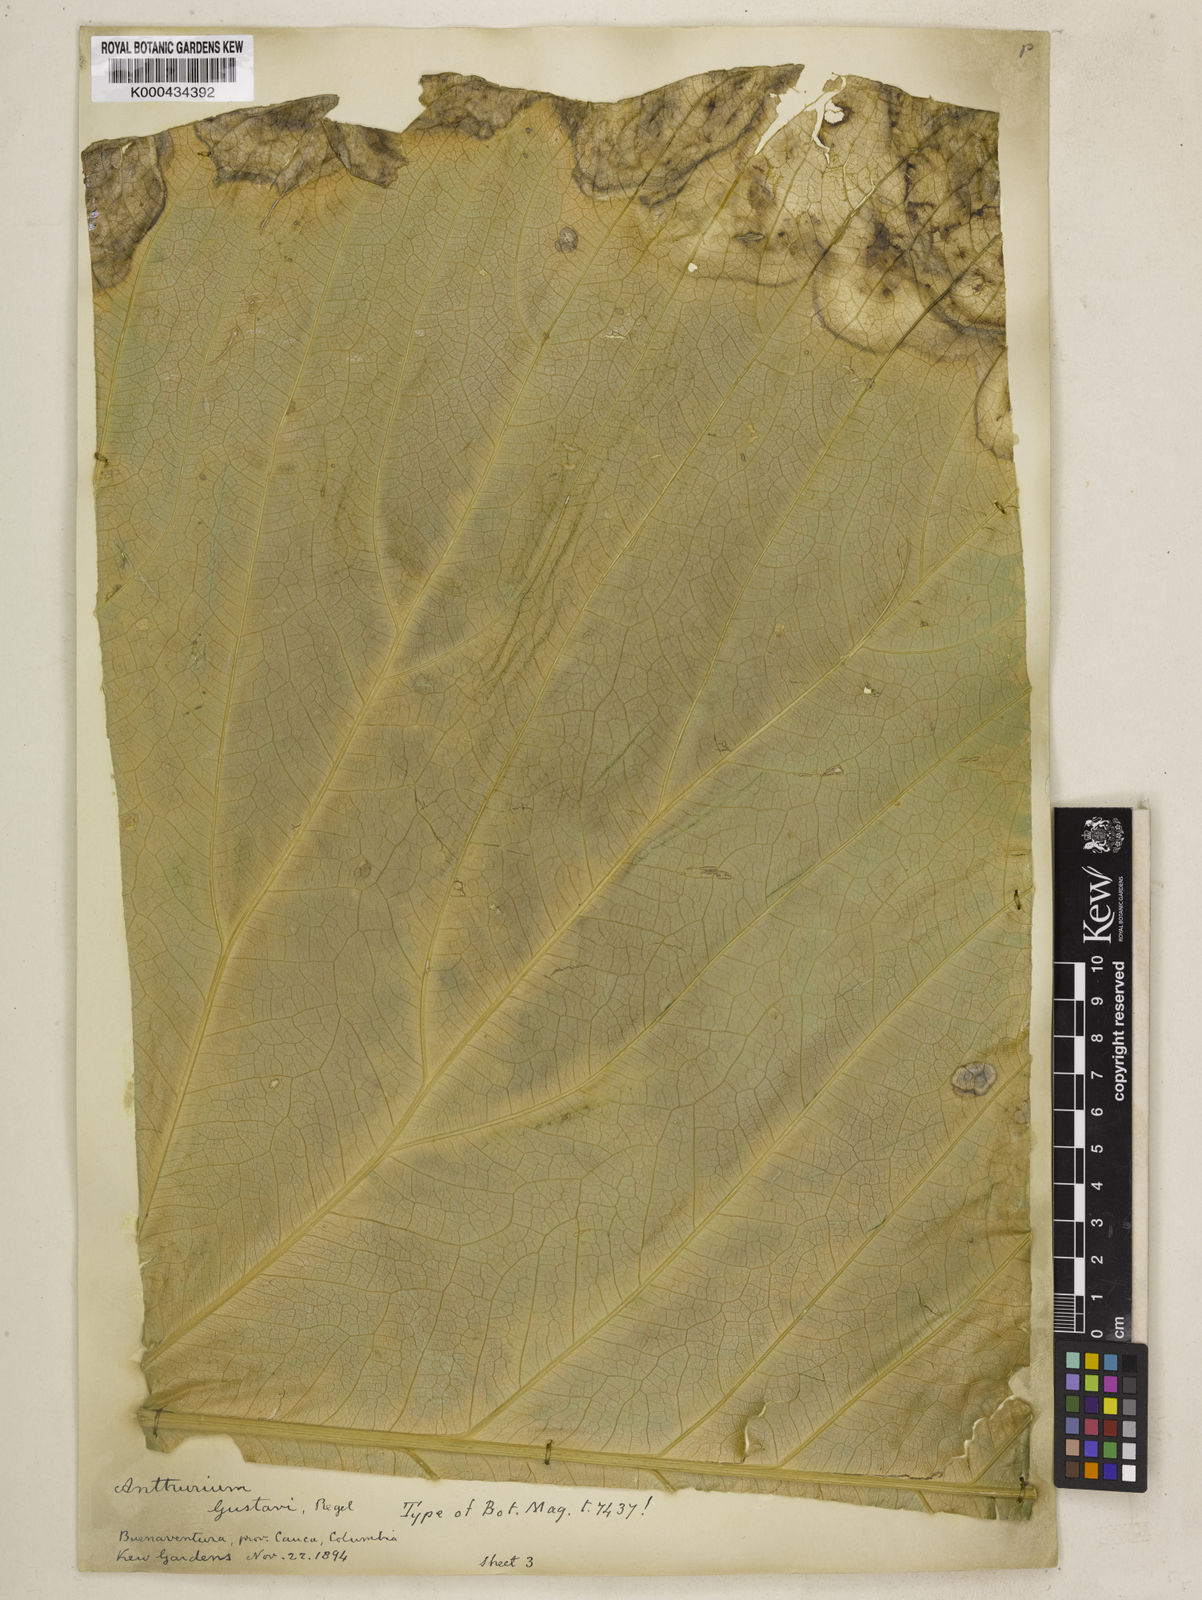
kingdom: Plantae
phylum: Tracheophyta
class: Liliopsida
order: Alismatales
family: Araceae
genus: Anthurium
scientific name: Anthurium gustavii
